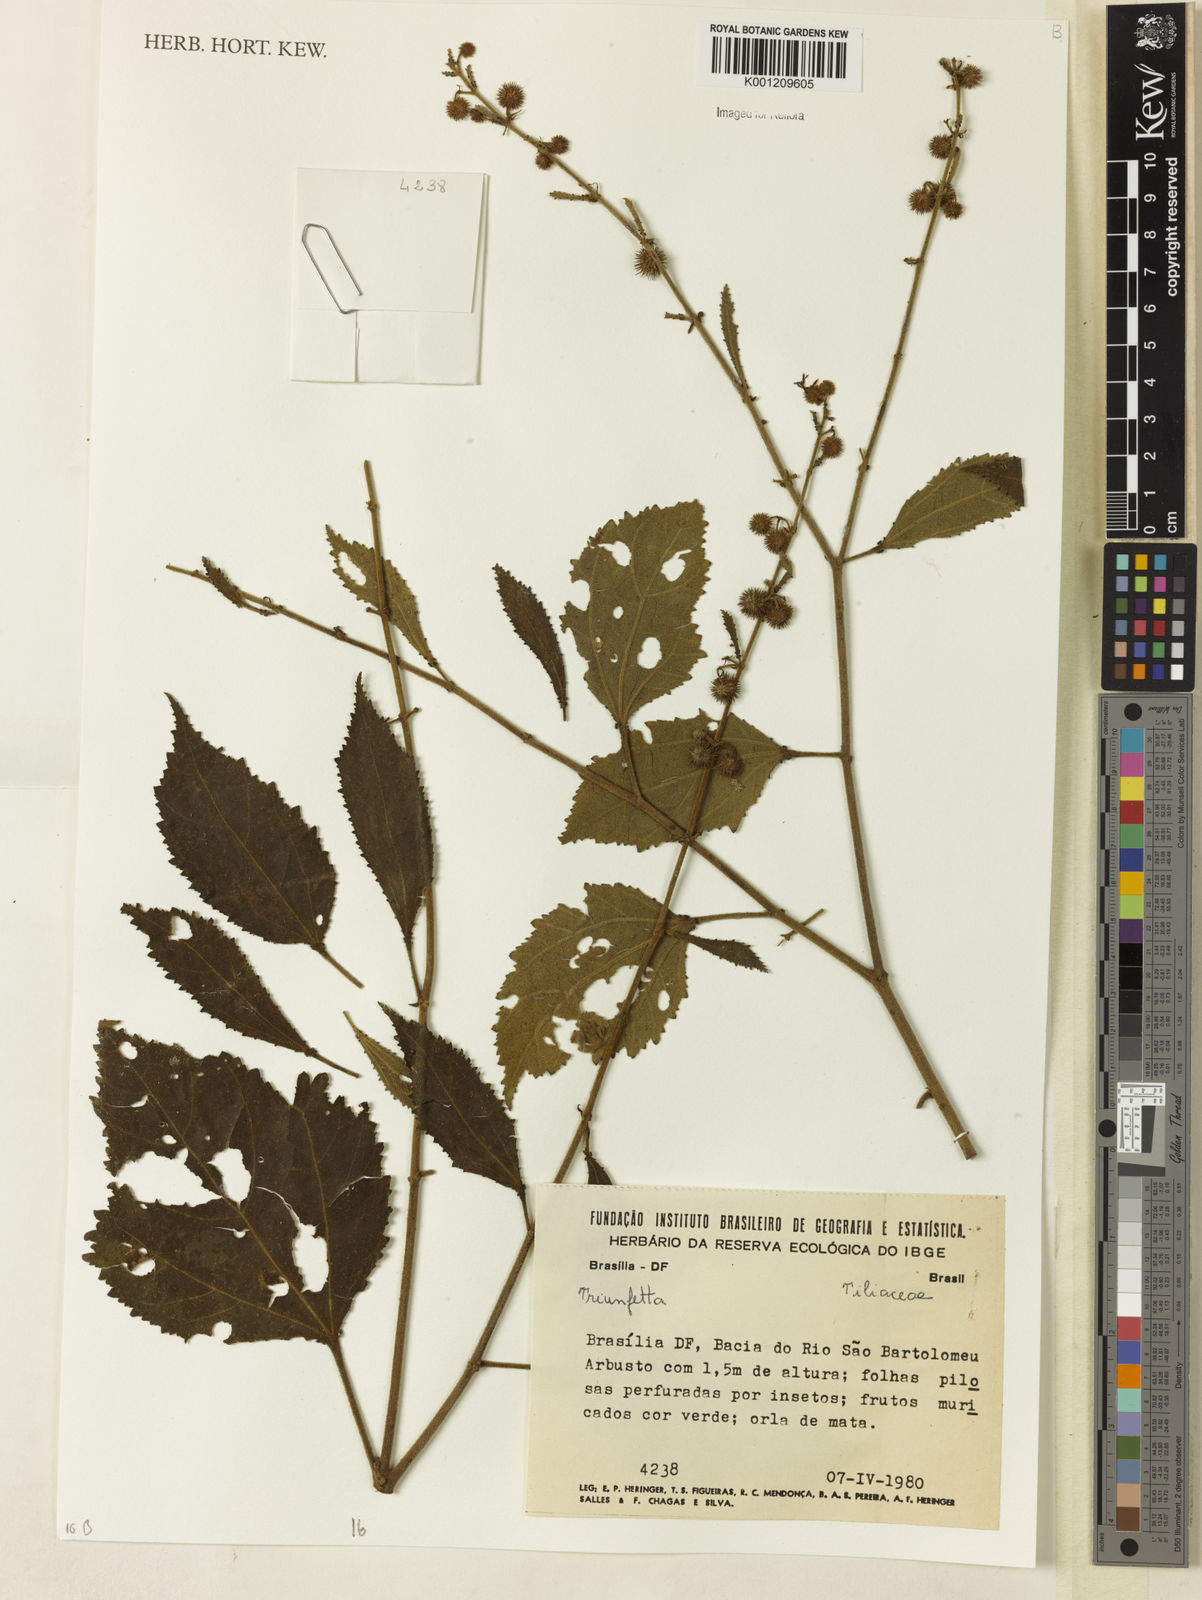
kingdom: Plantae
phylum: Tracheophyta
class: Magnoliopsida
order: Malvales
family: Malvaceae
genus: Triumfetta
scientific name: Triumfetta
